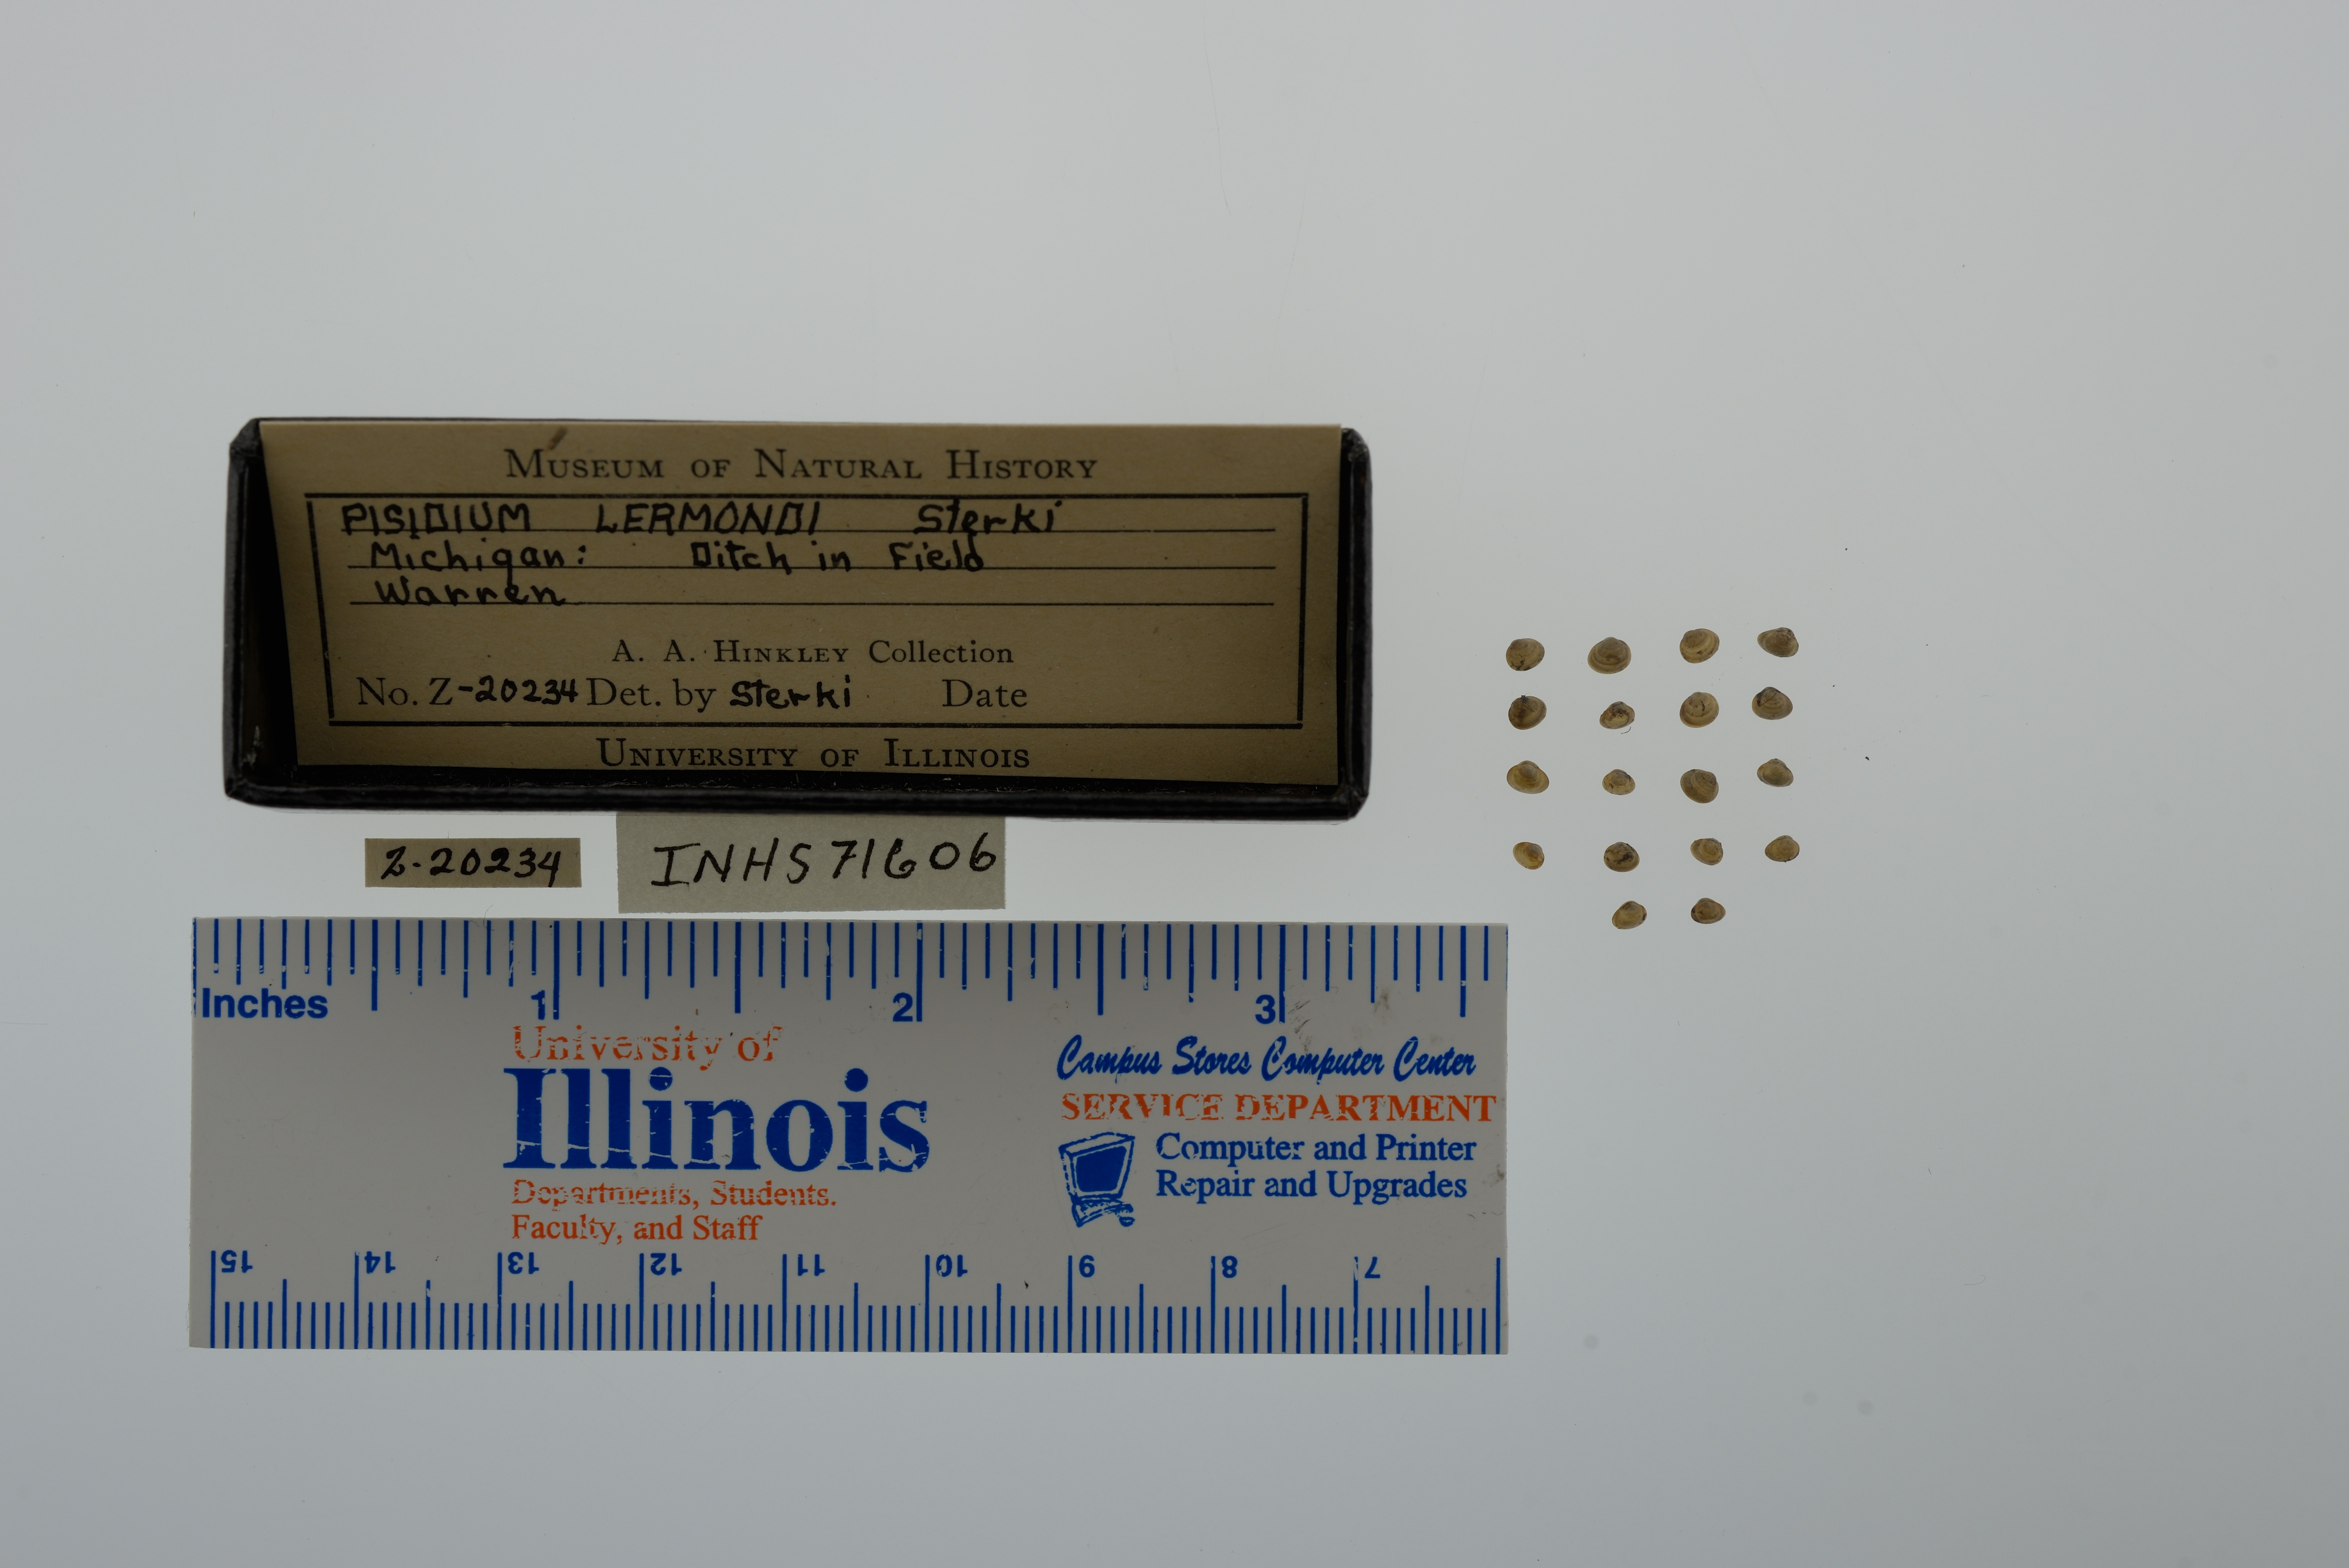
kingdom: Animalia
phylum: Mollusca
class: Bivalvia
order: Sphaeriida
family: Sphaeriidae
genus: Euglesa
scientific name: Euglesa nitida
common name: Shining peaclam
